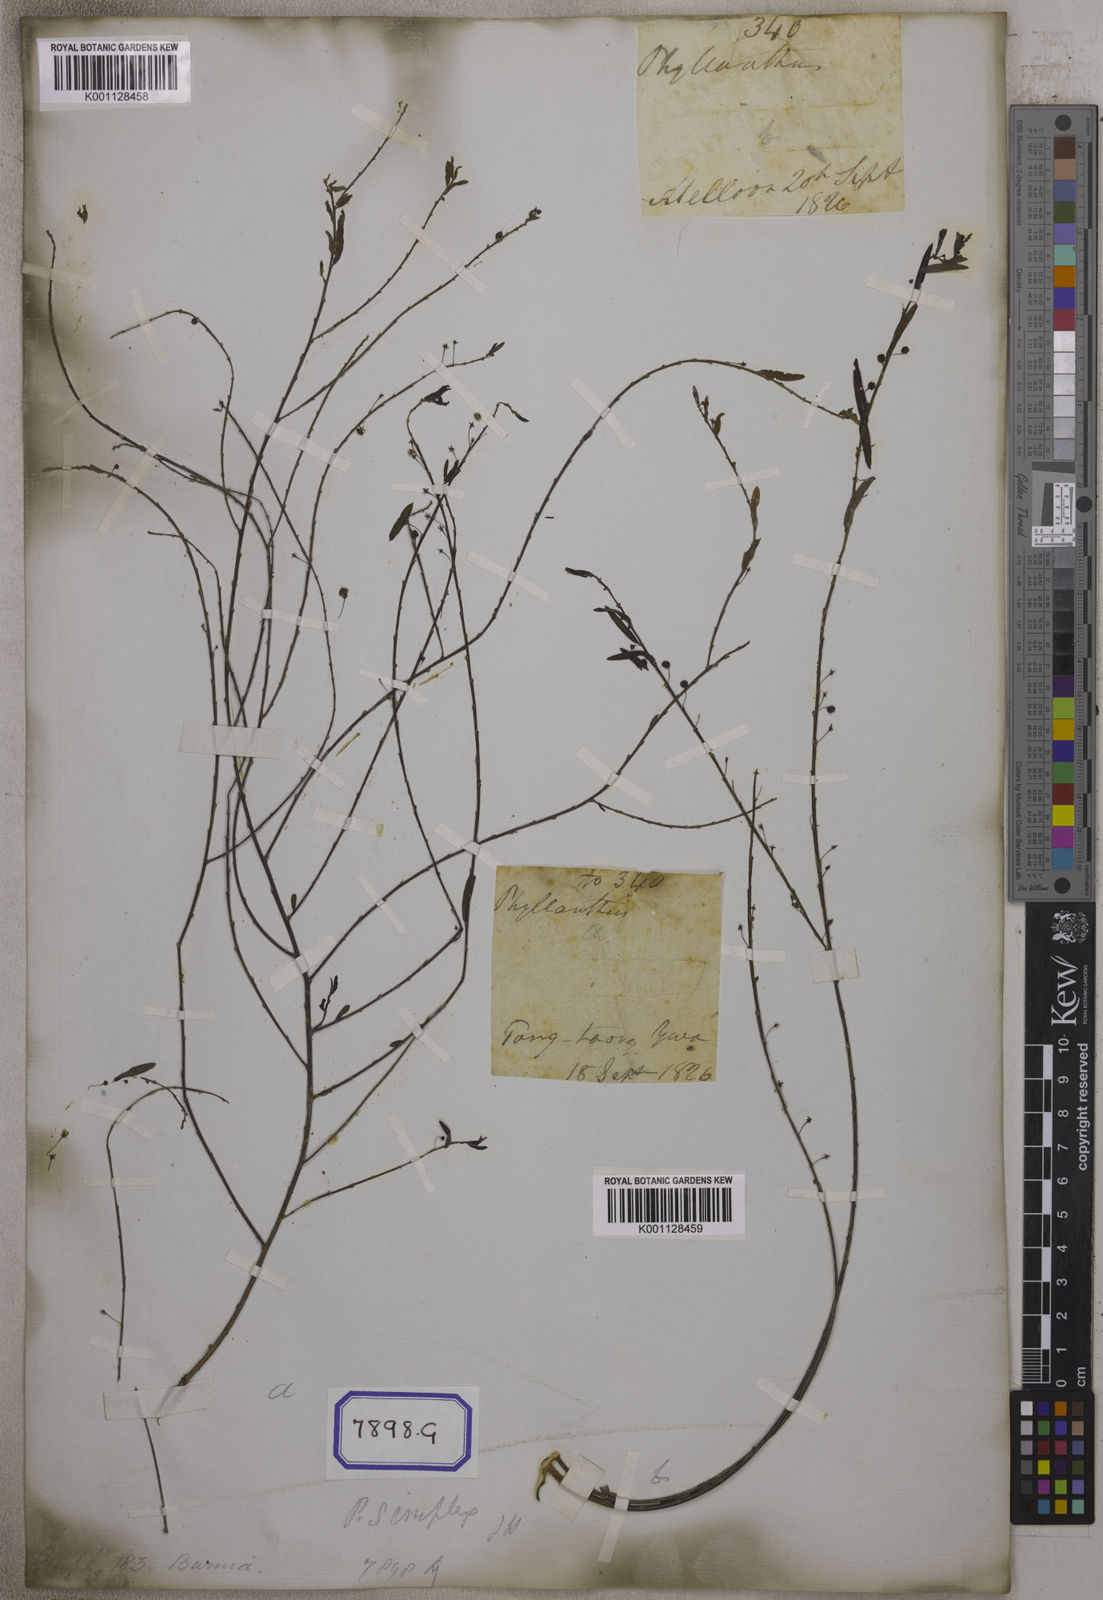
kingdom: Plantae
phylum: Tracheophyta
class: Magnoliopsida
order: Malpighiales
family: Euphorbiaceae
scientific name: Euphorbiaceae
